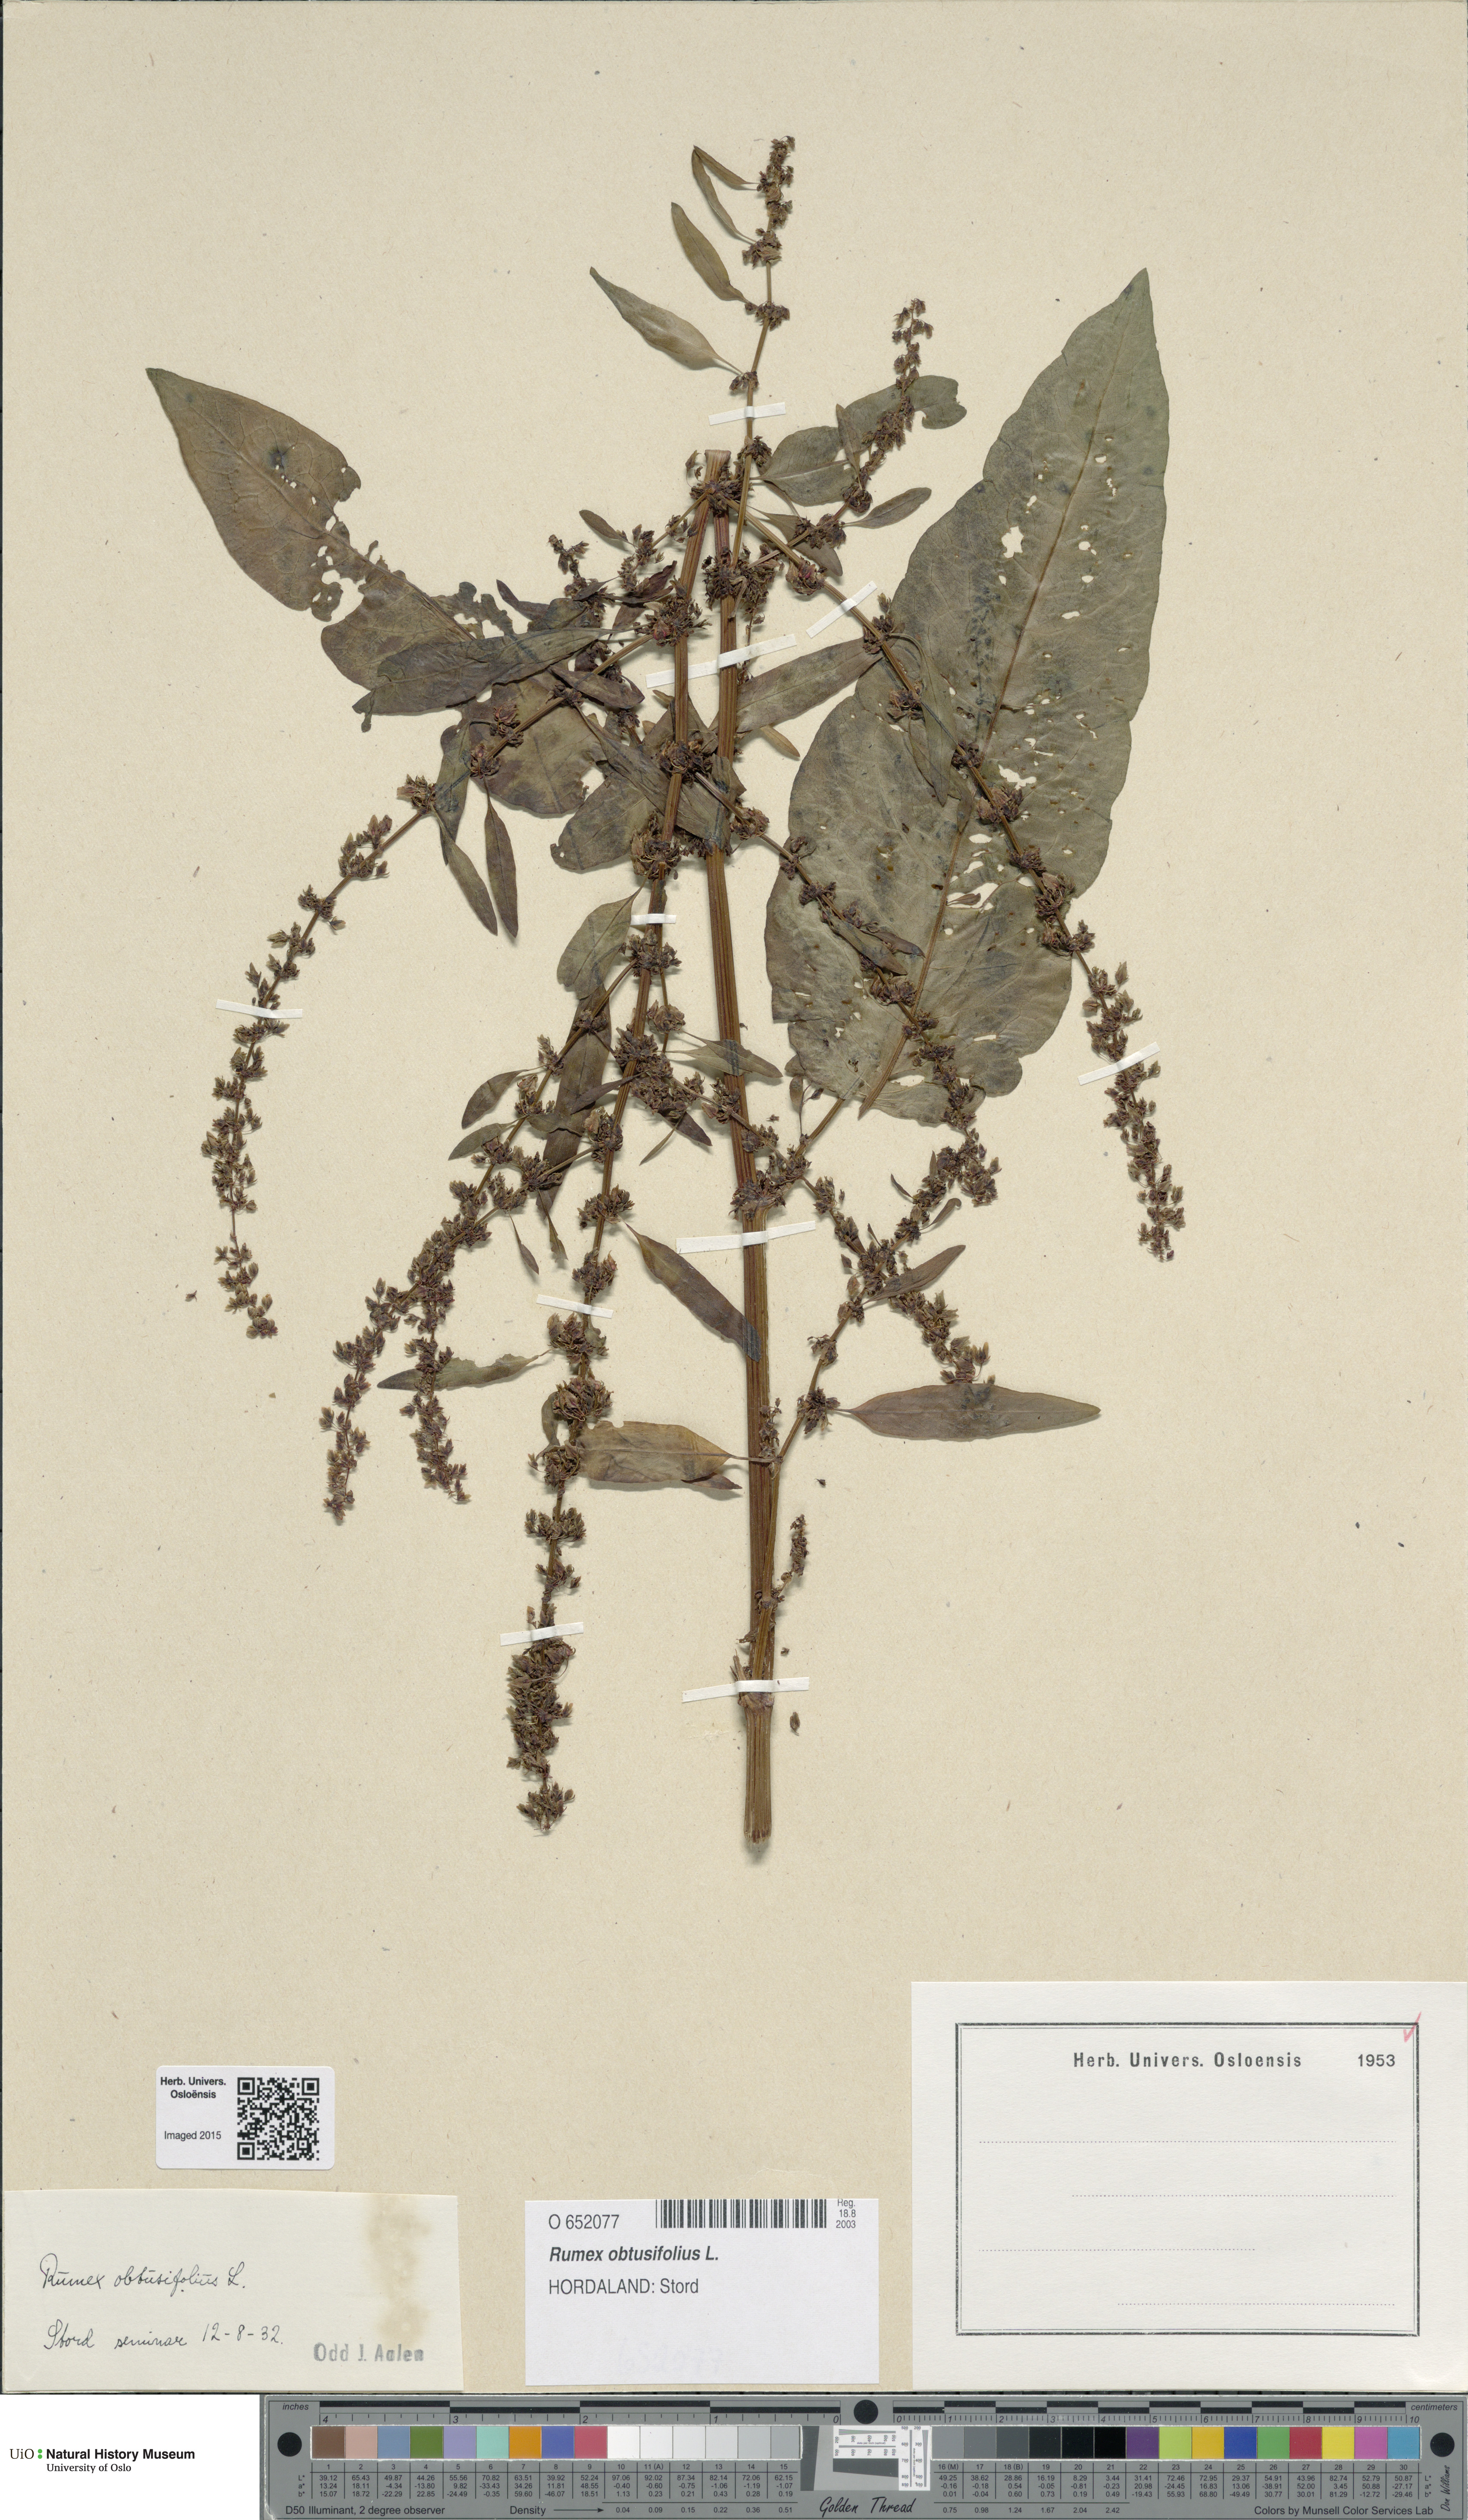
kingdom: Plantae
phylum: Tracheophyta
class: Magnoliopsida
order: Caryophyllales
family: Polygonaceae
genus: Rumex
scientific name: Rumex obtusifolius
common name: Bitter dock
